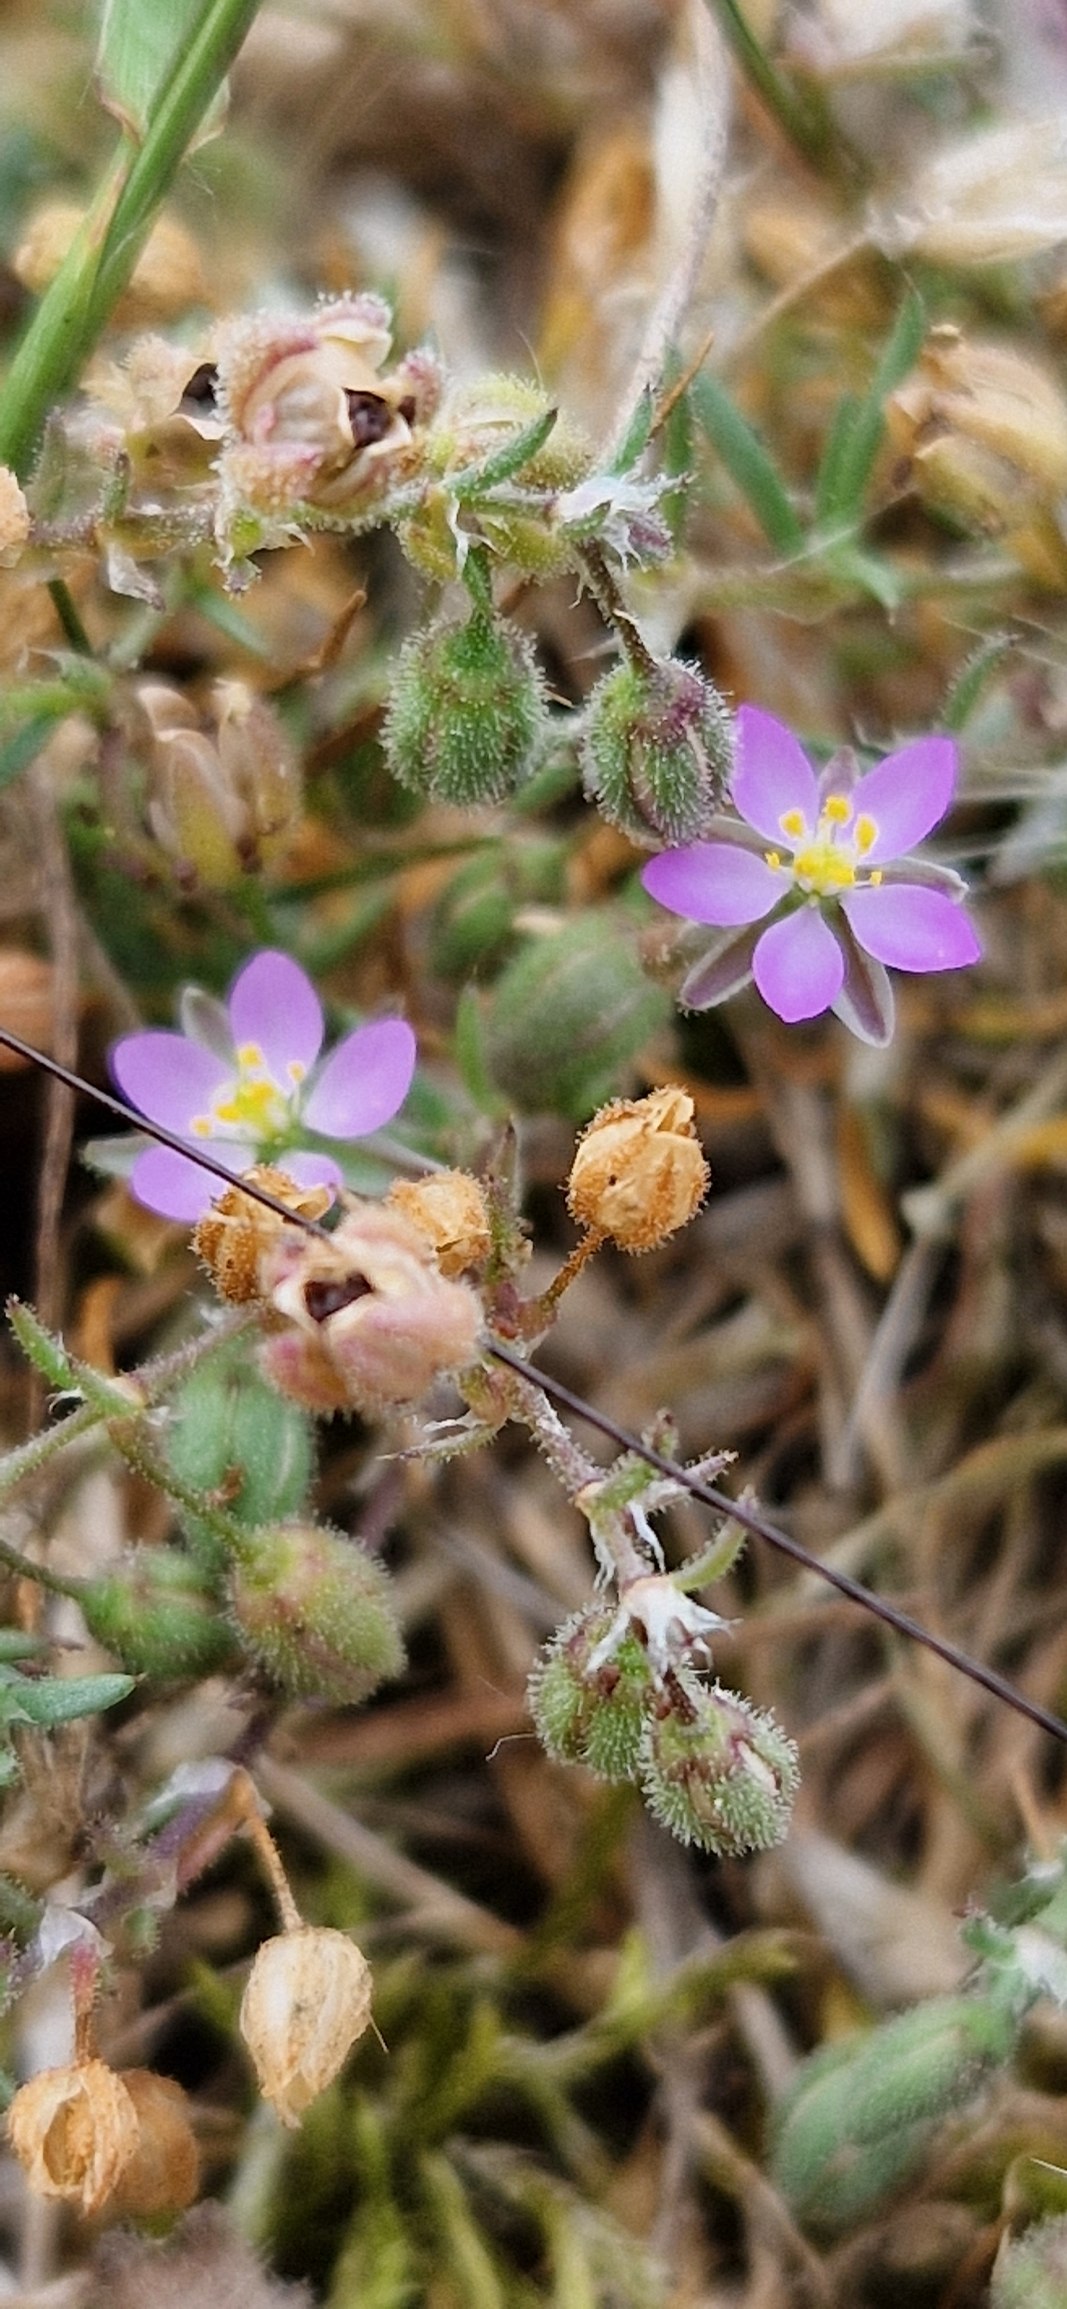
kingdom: Plantae
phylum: Tracheophyta
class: Magnoliopsida
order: Caryophyllales
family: Caryophyllaceae
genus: Spergularia
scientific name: Spergularia rubra
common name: Mark-hindeknæ
